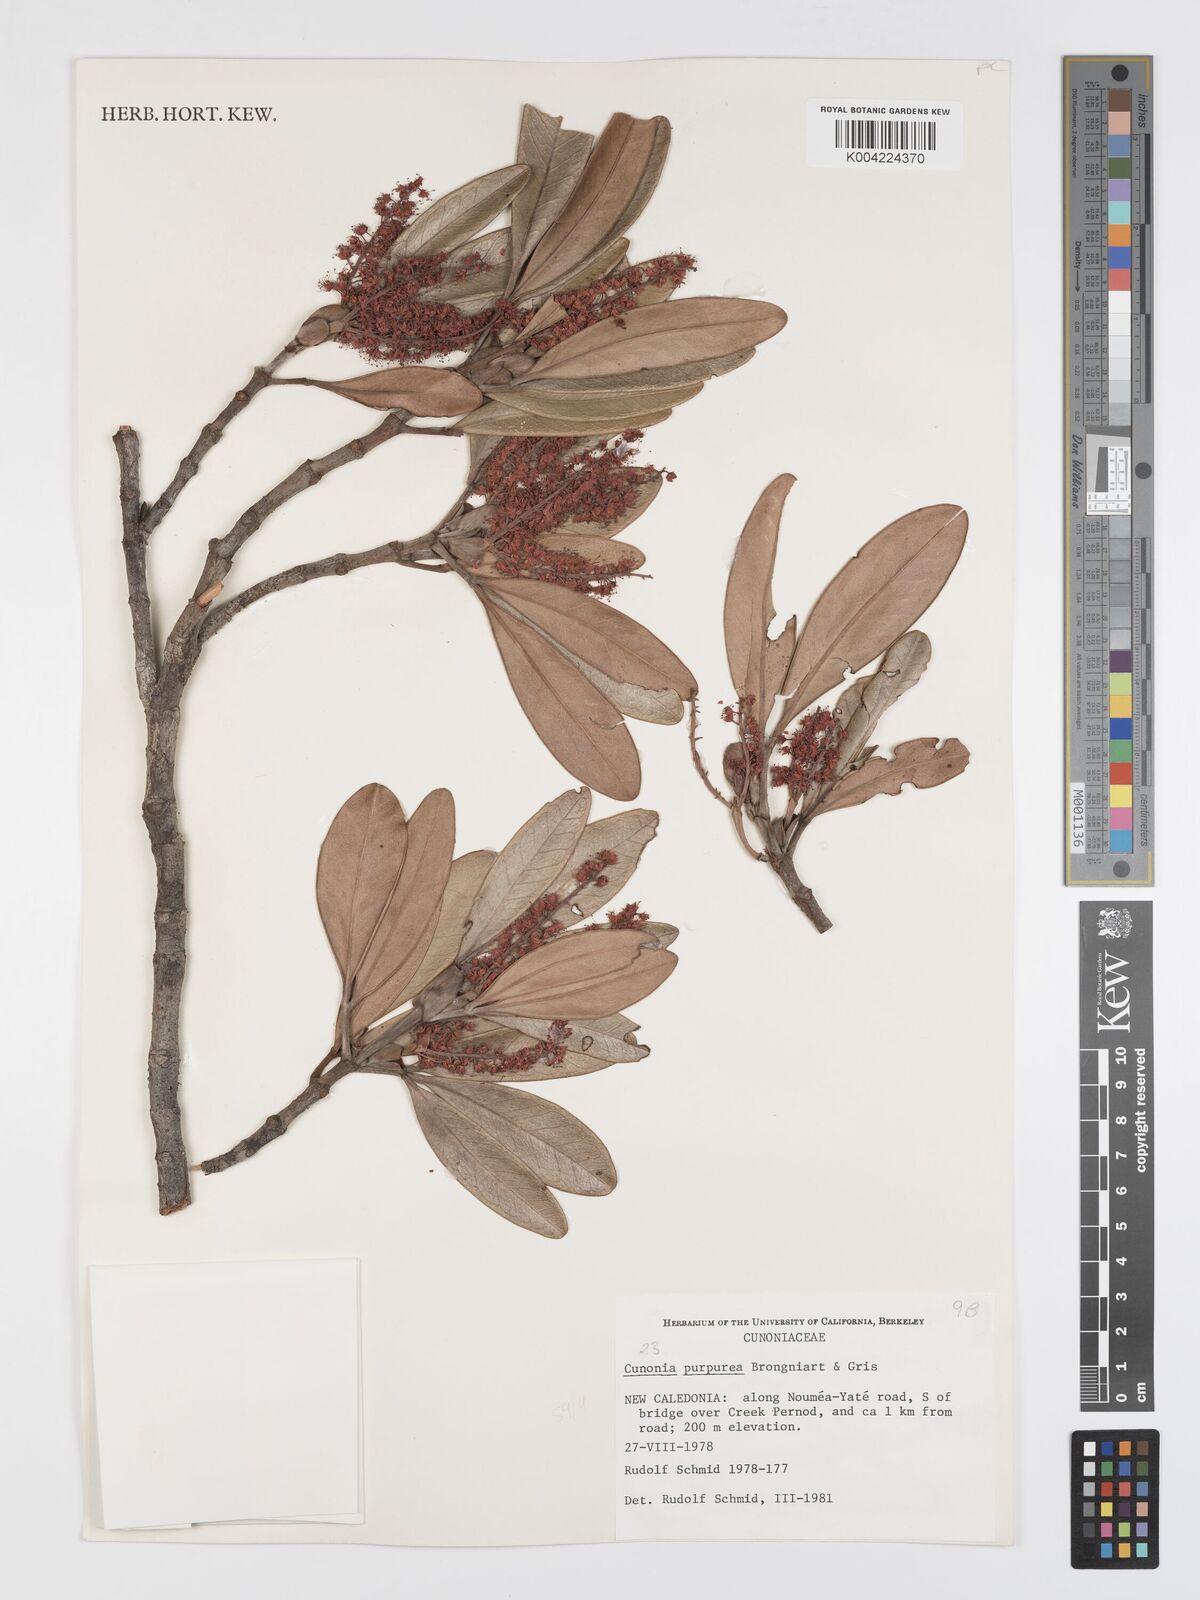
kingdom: Plantae
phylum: Tracheophyta
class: Magnoliopsida
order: Oxalidales
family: Cunoniaceae
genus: Cunonia
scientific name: Cunonia purpurea
